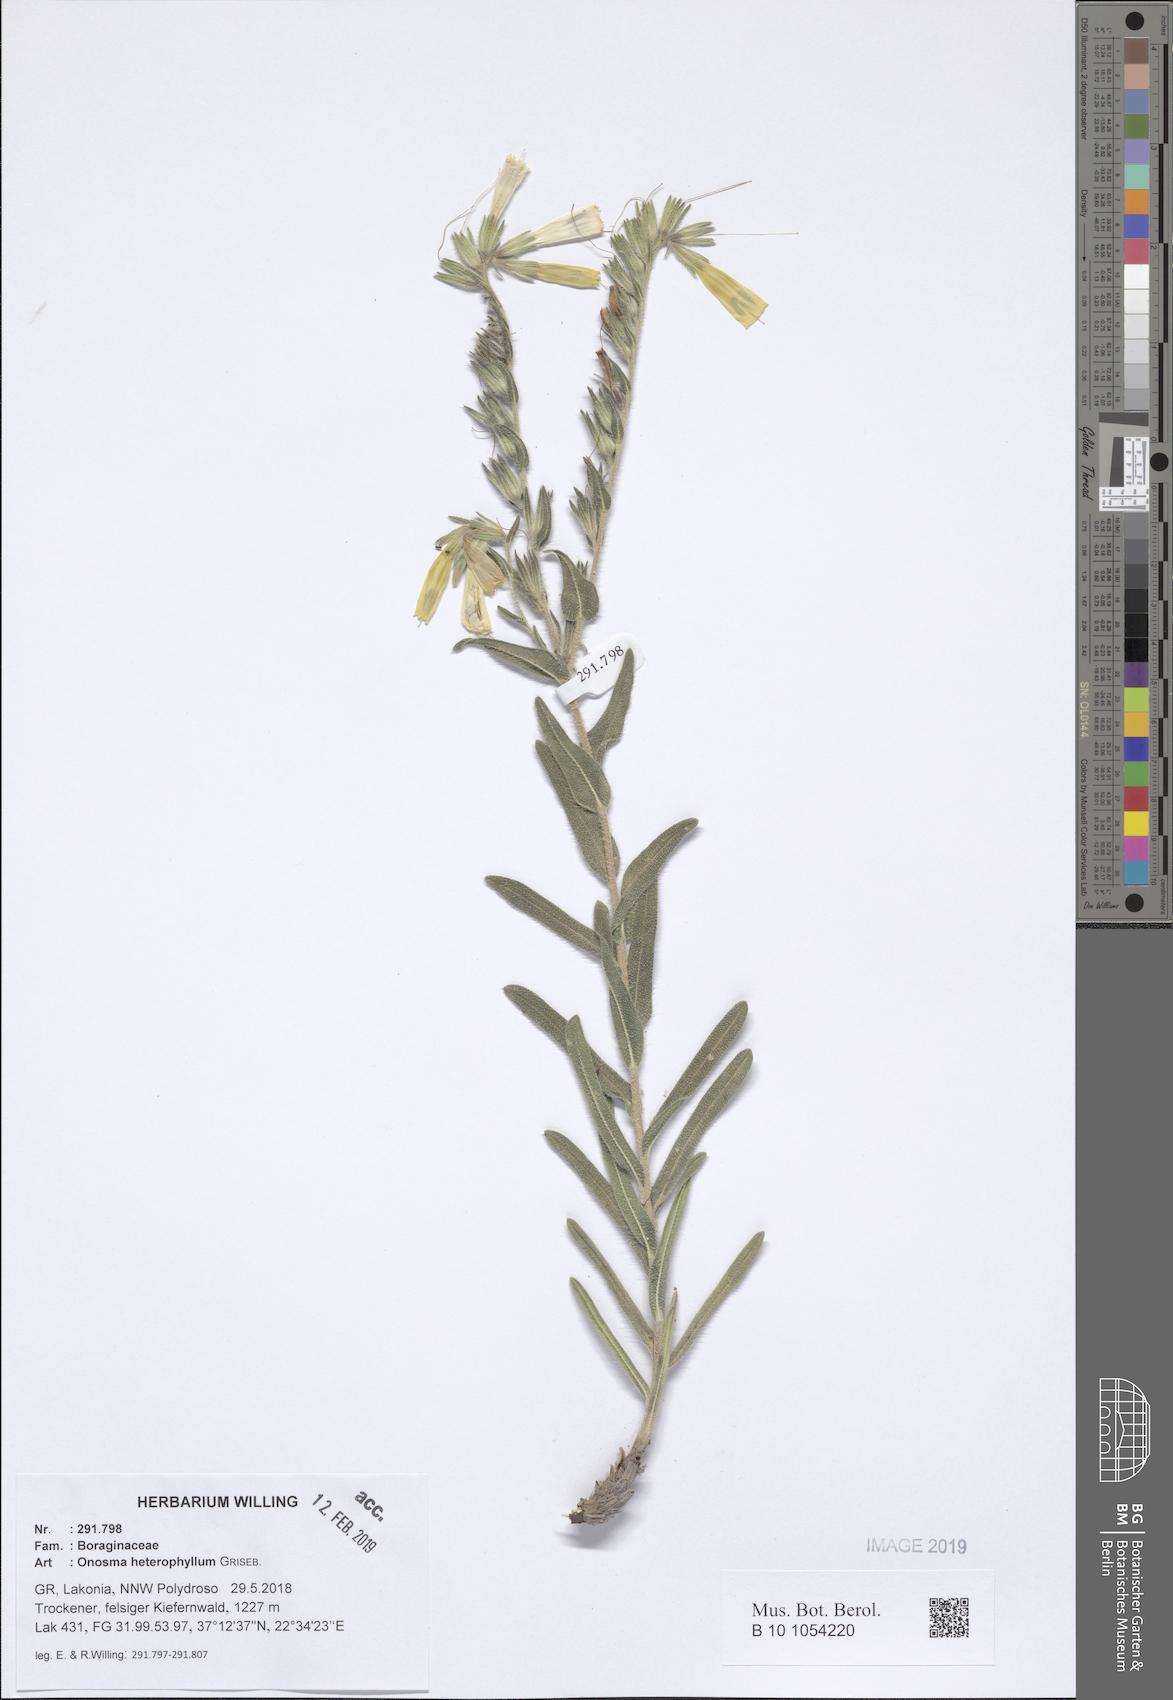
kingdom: Plantae
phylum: Tracheophyta
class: Magnoliopsida
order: Boraginales
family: Boraginaceae
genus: Onosma
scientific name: Onosma heterophylla
